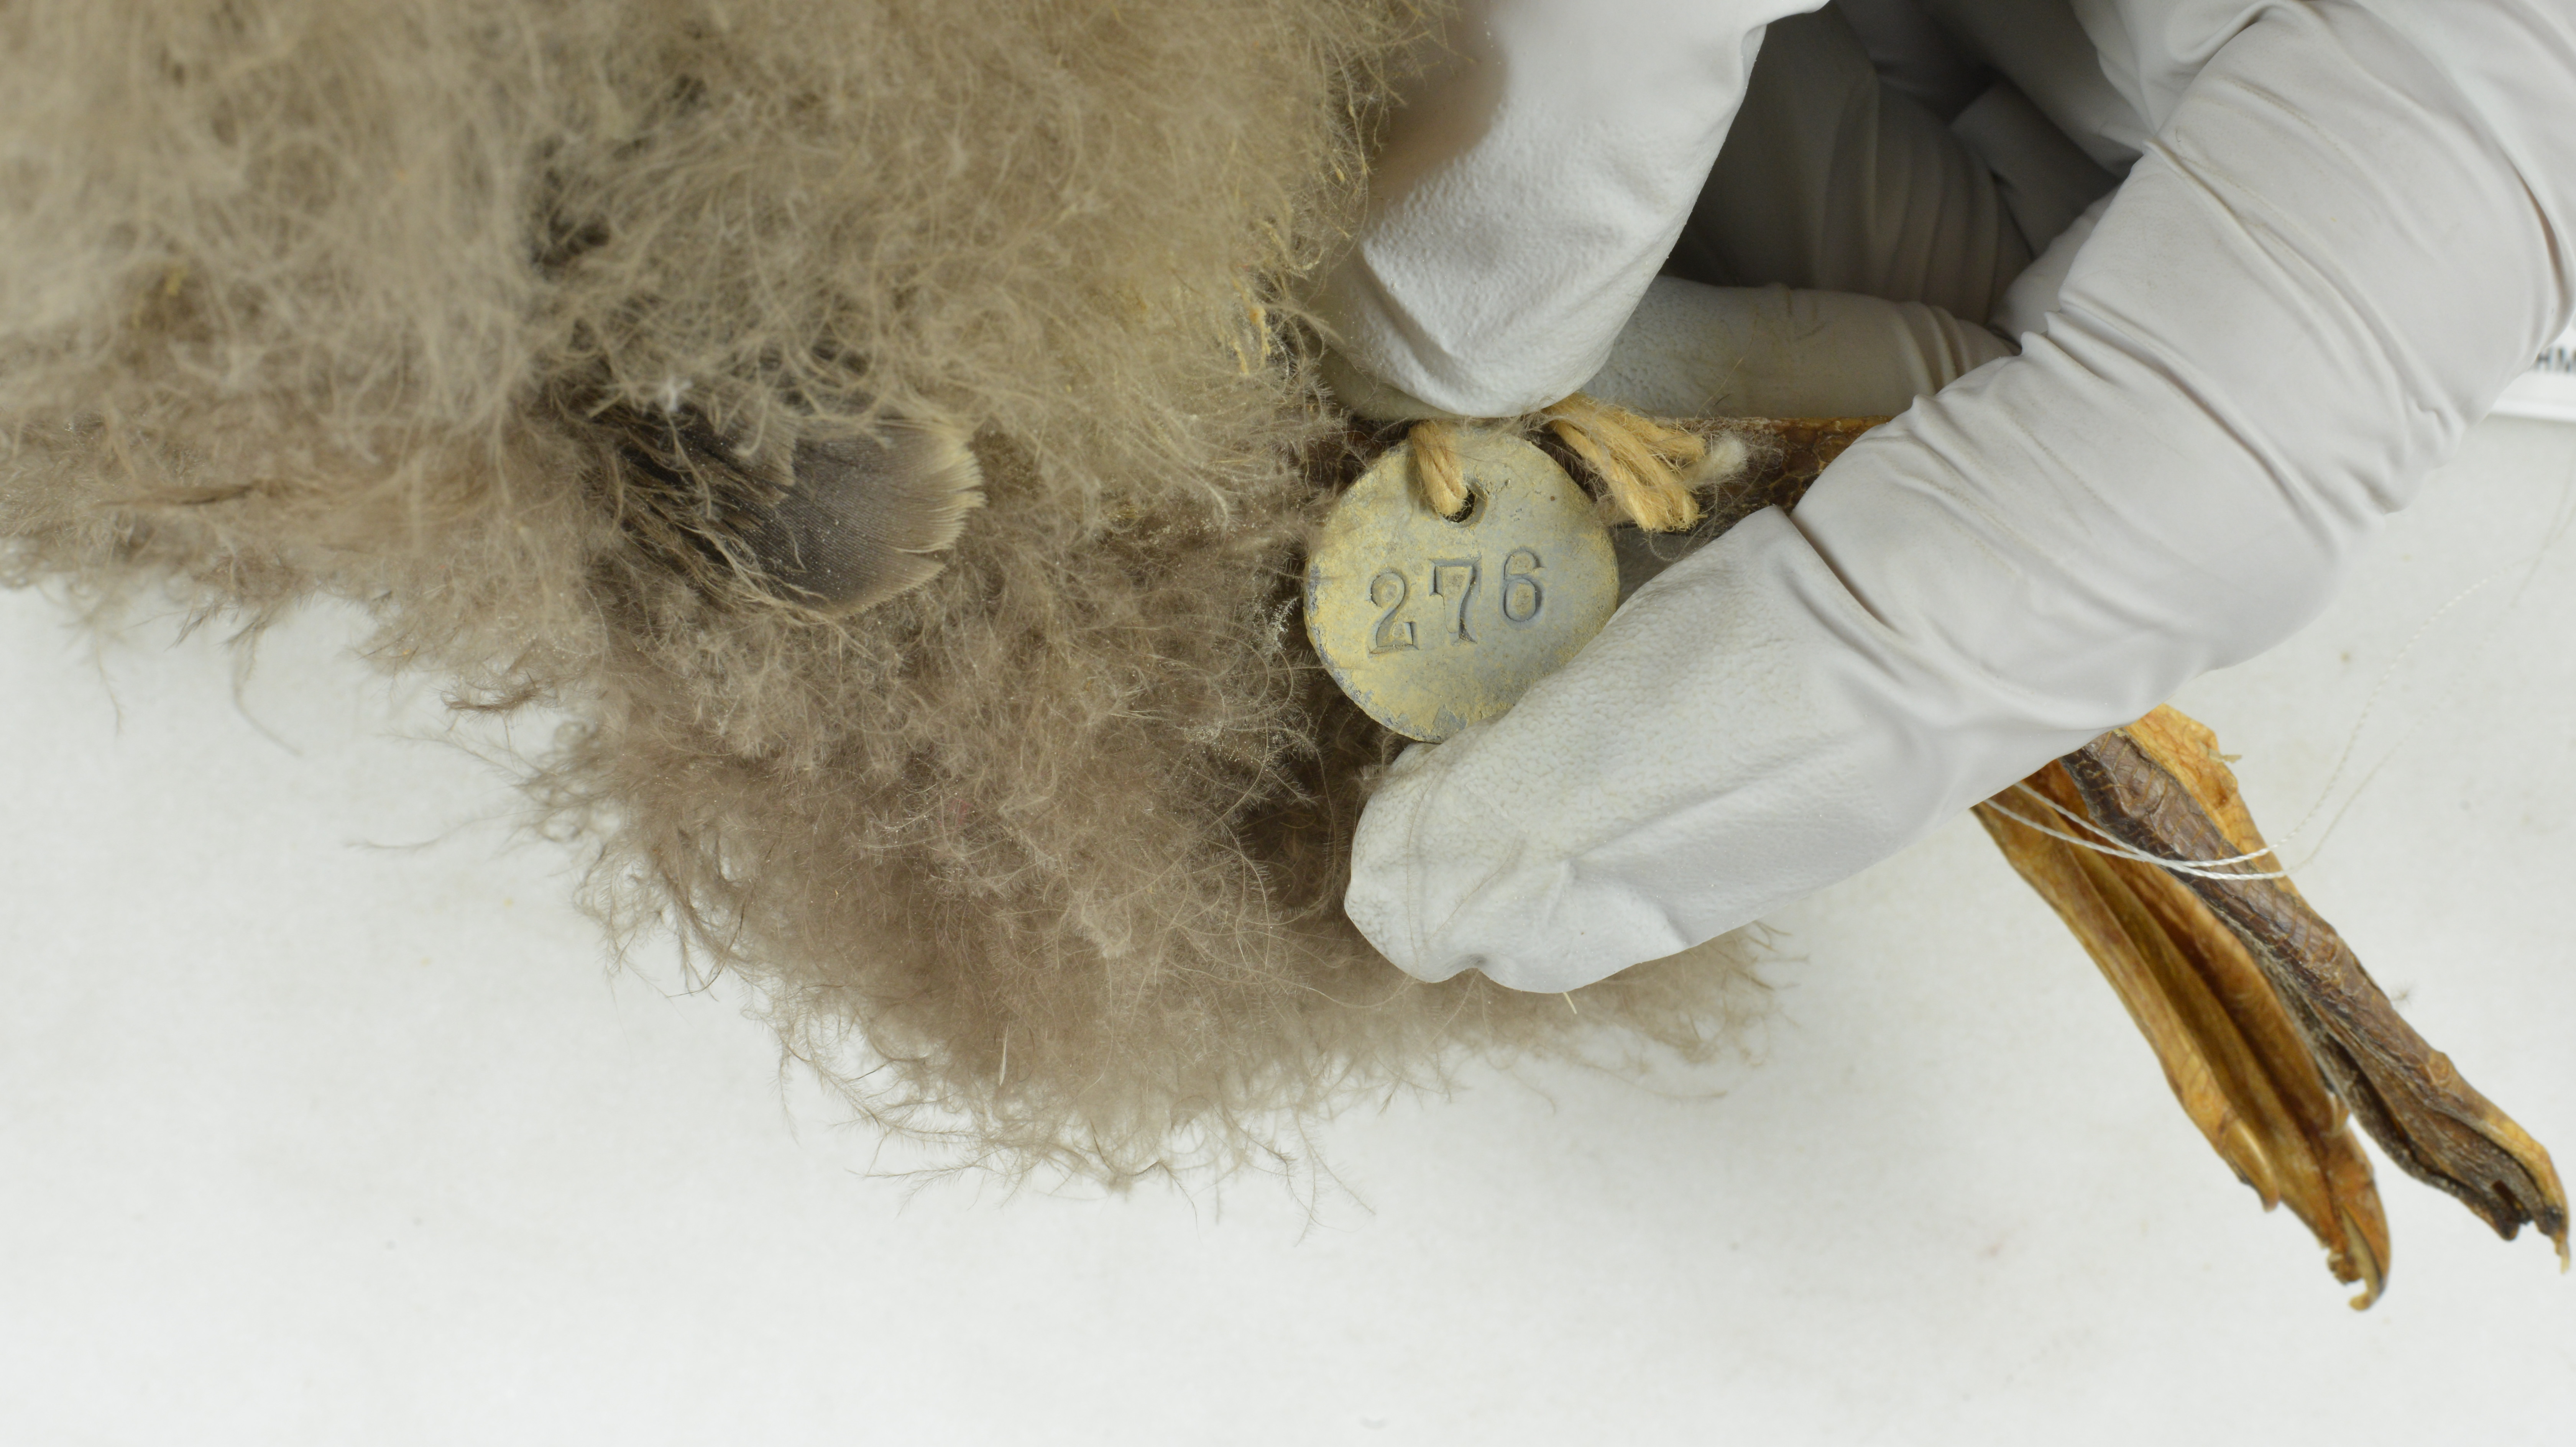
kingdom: Animalia
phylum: Chordata
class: Aves
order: Procellariiformes
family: Procellariidae
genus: Puffinus
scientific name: Puffinus gravis
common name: Great shearwater
